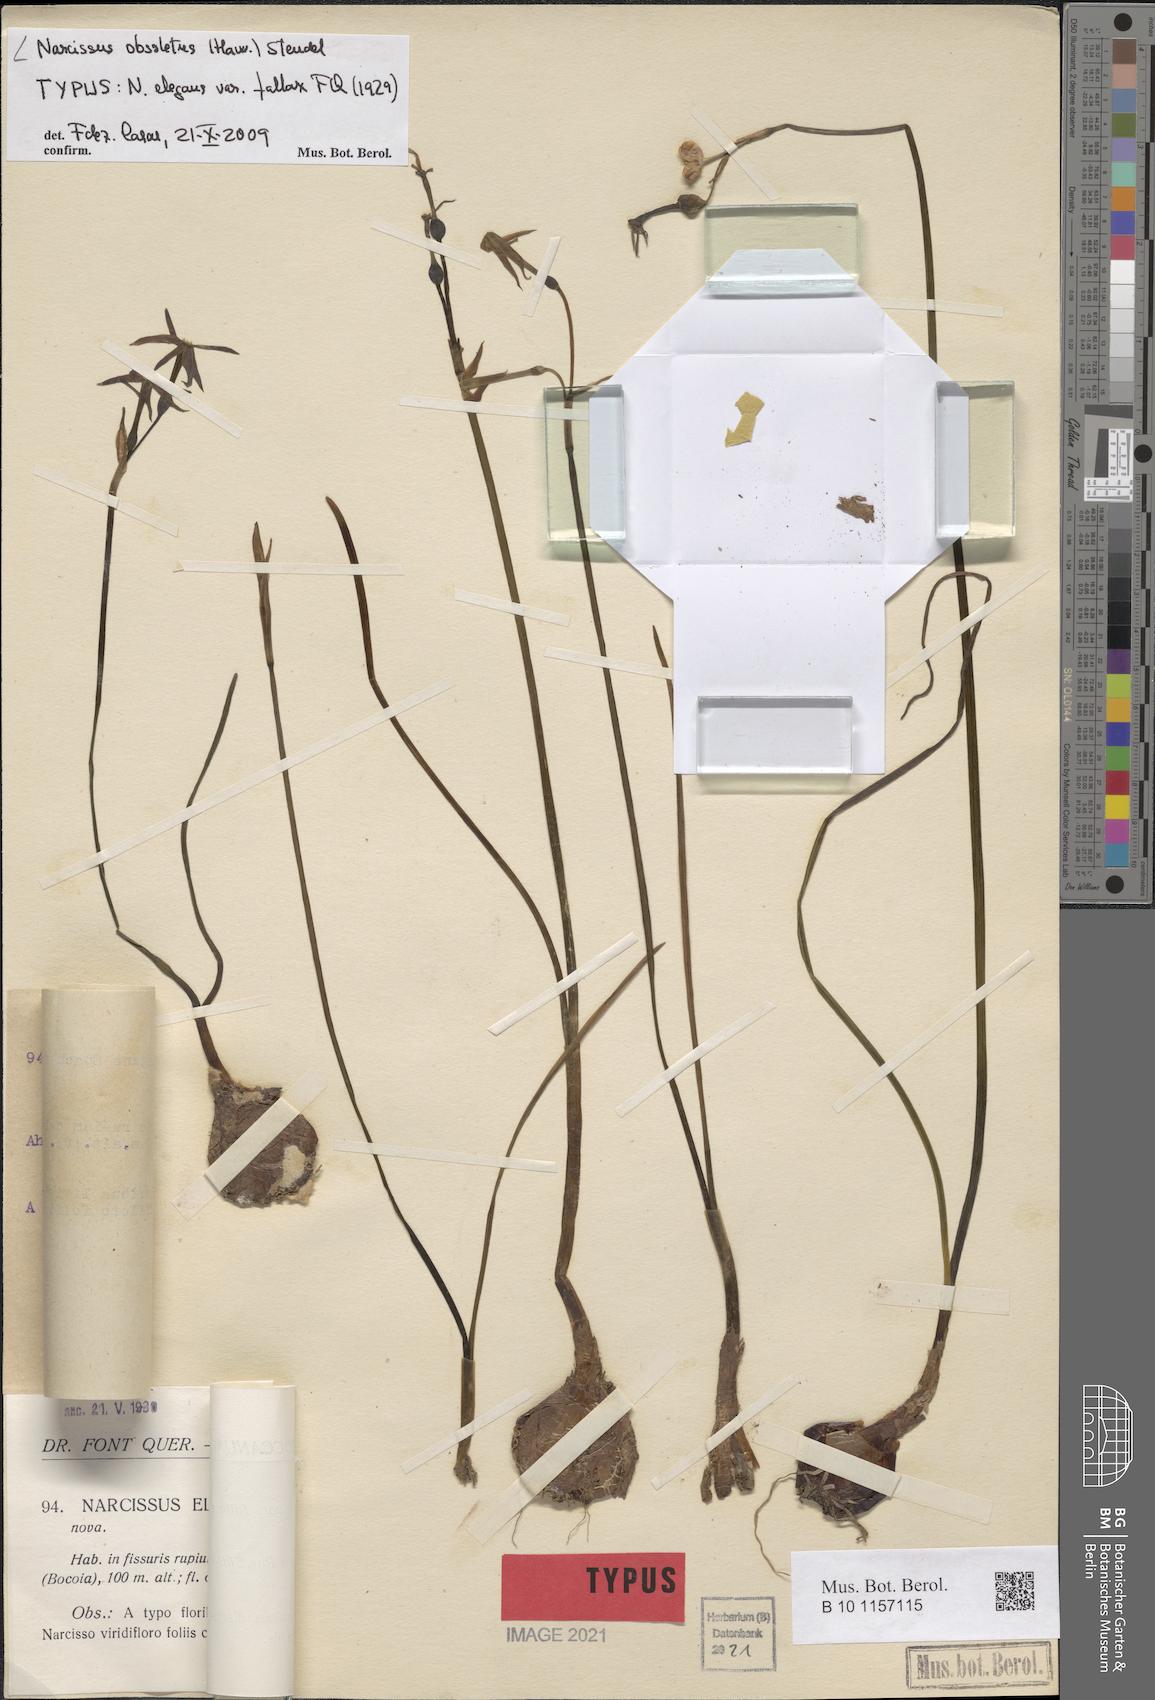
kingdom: Plantae
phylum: Tracheophyta
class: Liliopsida
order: Asparagales
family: Amaryllidaceae
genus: Narcissus
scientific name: Narcissus obsoletus
